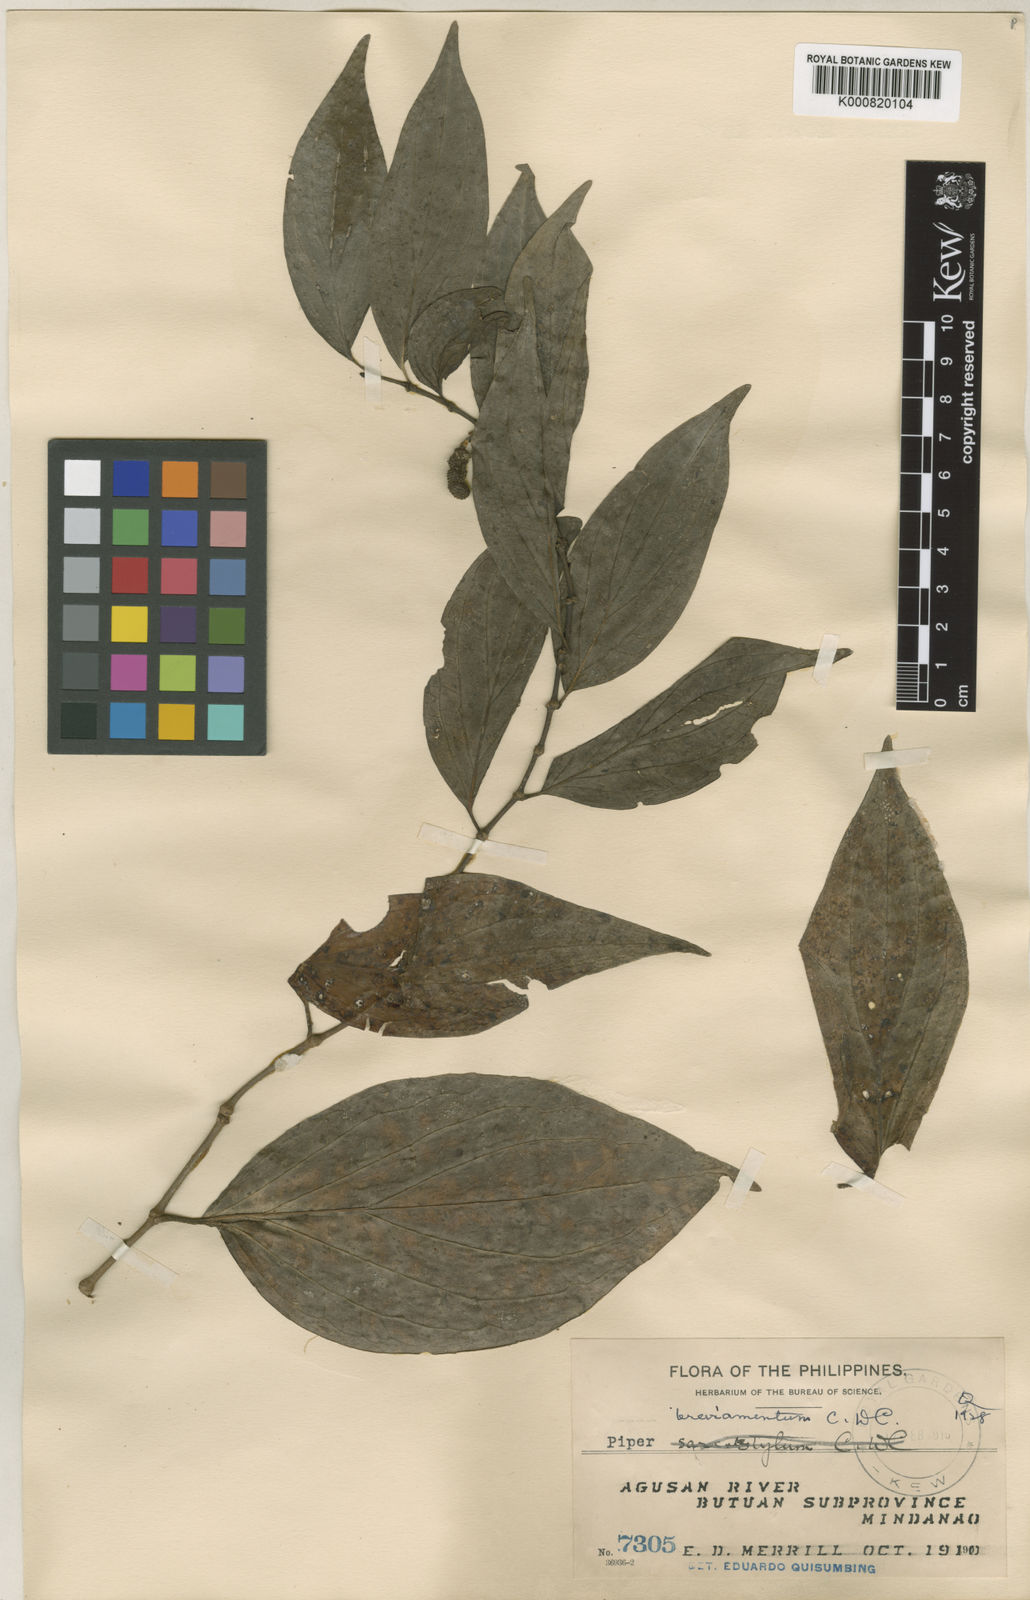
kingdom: Plantae
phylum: Tracheophyta
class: Magnoliopsida
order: Piperales
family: Piperaceae
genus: Piper
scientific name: Piper breviamentum
